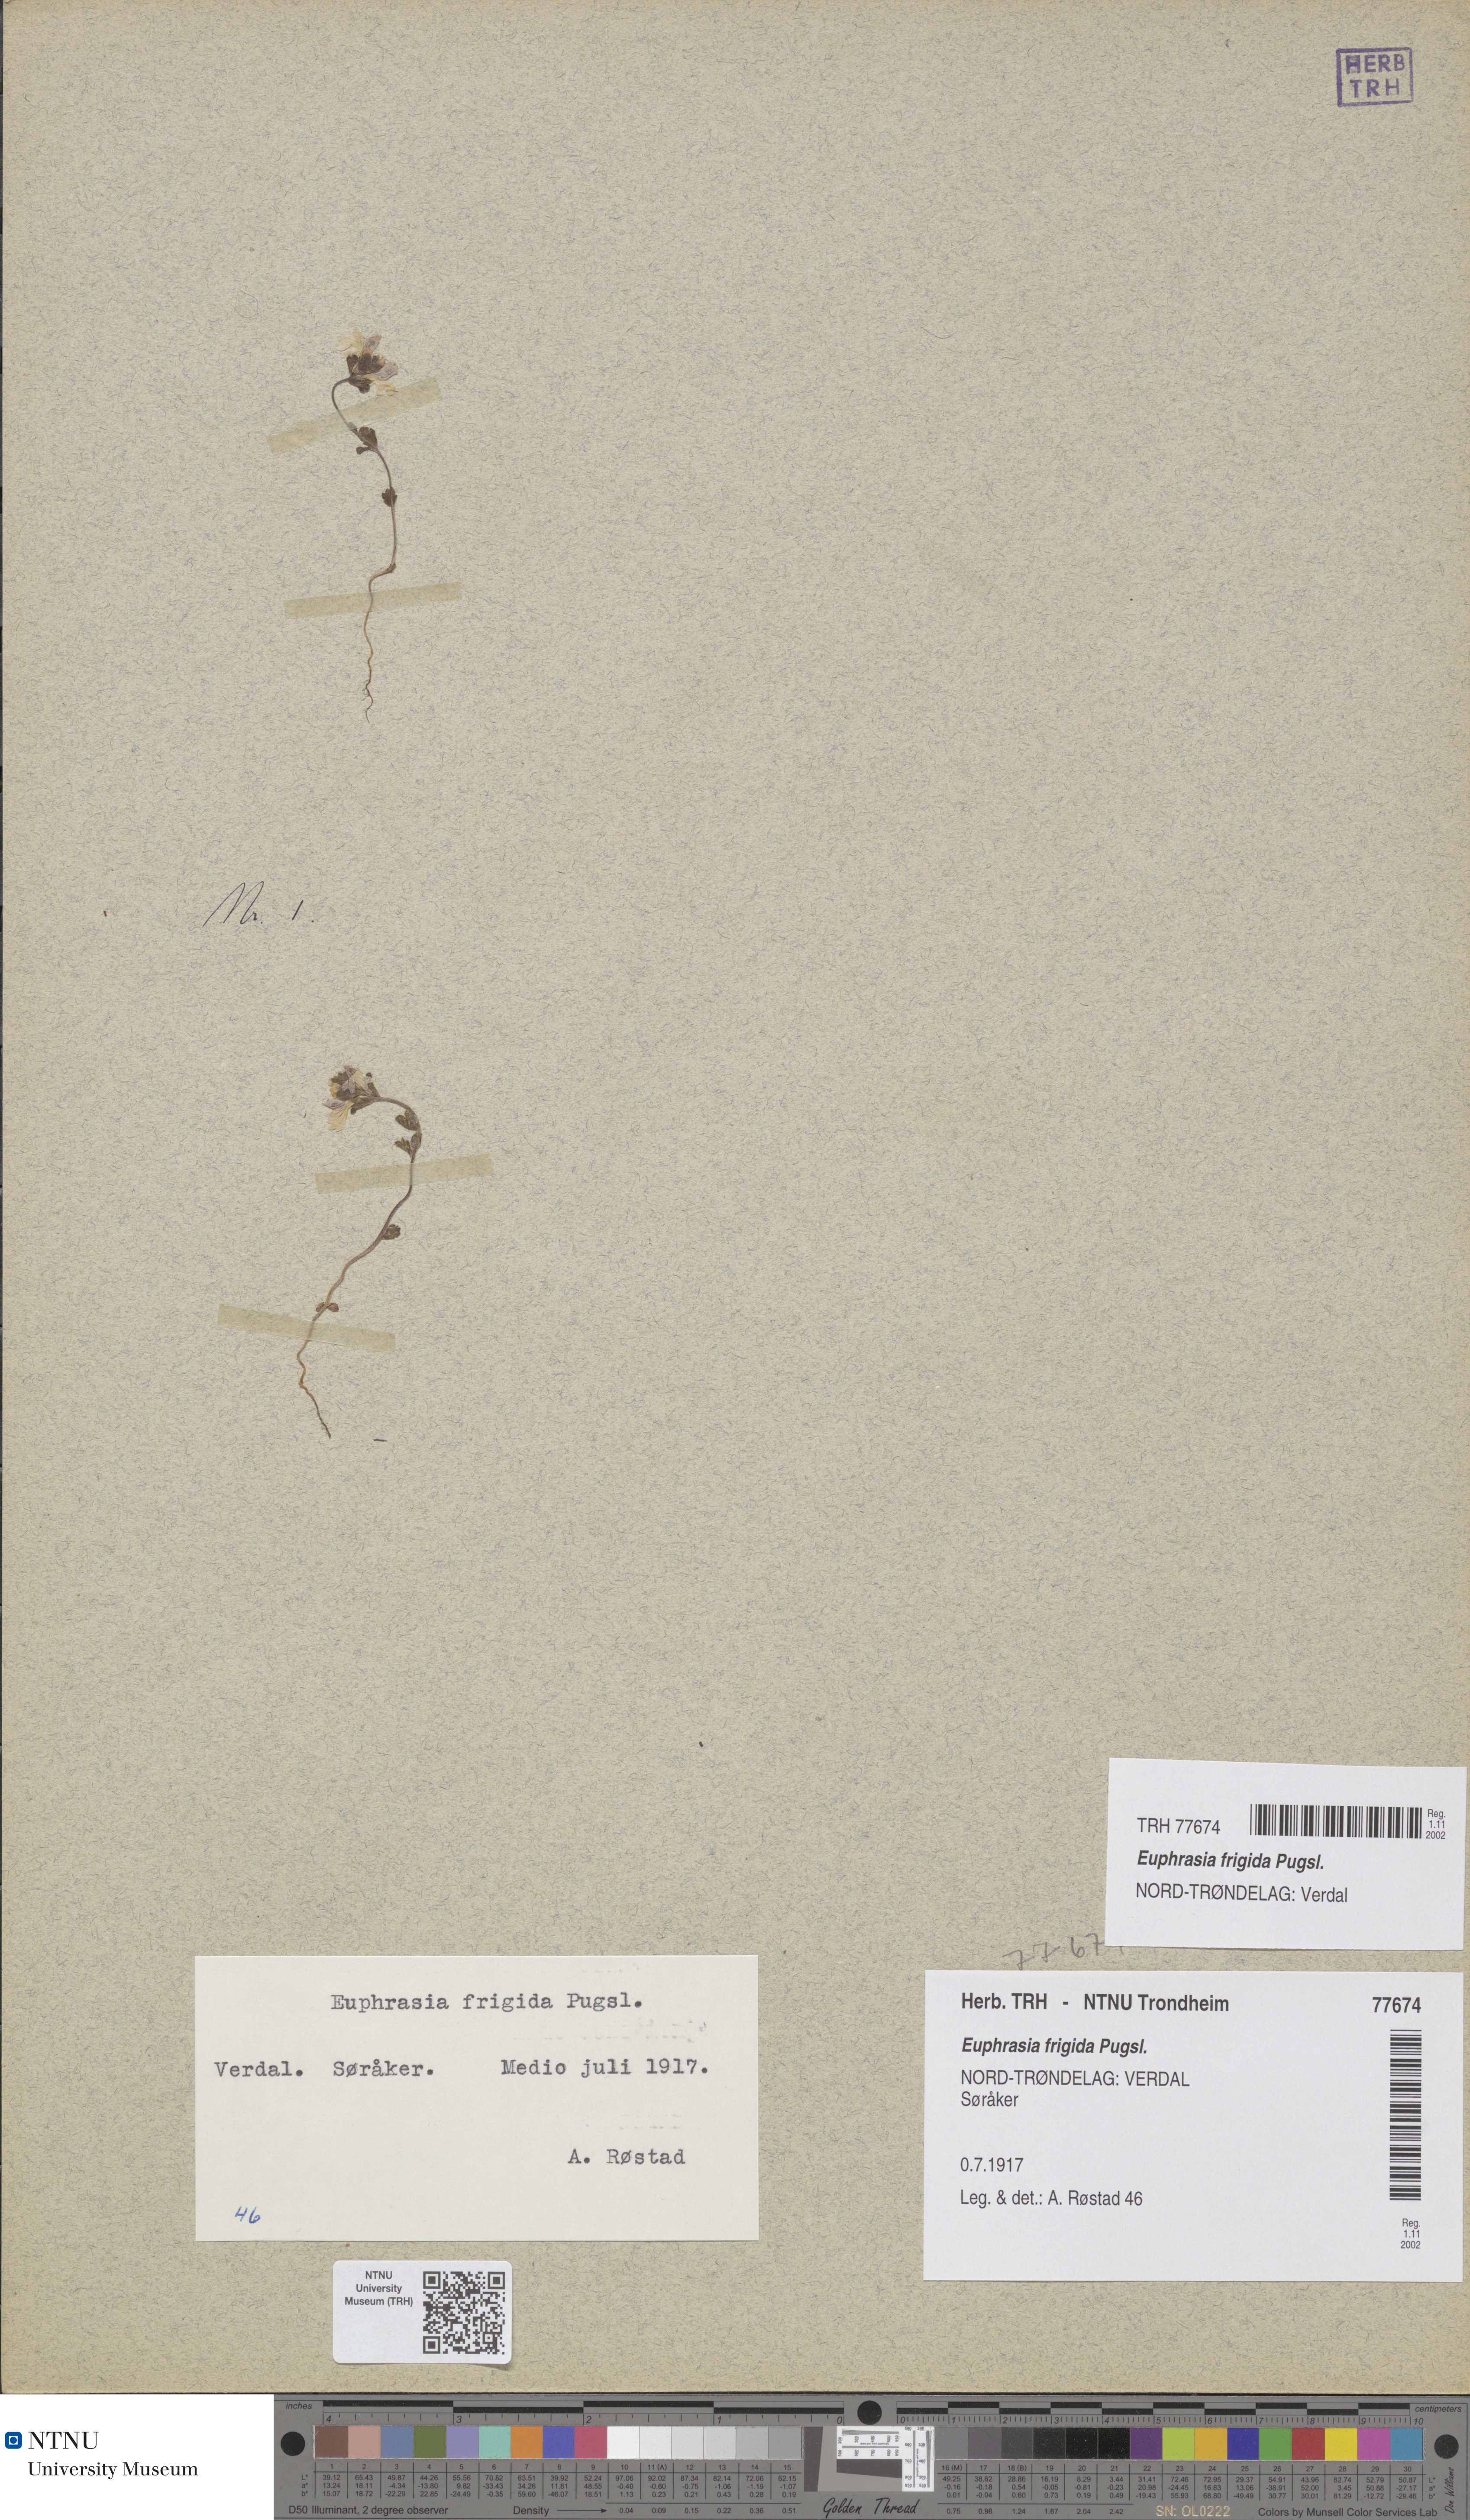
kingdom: Plantae
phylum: Tracheophyta
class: Magnoliopsida
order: Lamiales
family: Orobanchaceae
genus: Euphrasia
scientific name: Euphrasia wettsteinii
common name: Wettstein's eyebright
